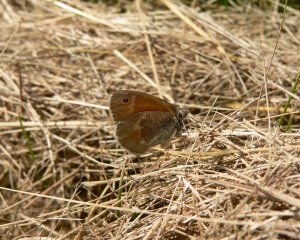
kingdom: Animalia
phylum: Arthropoda
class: Insecta
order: Lepidoptera
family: Nymphalidae
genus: Coenonympha
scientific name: Coenonympha tullia
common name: Large Heath
